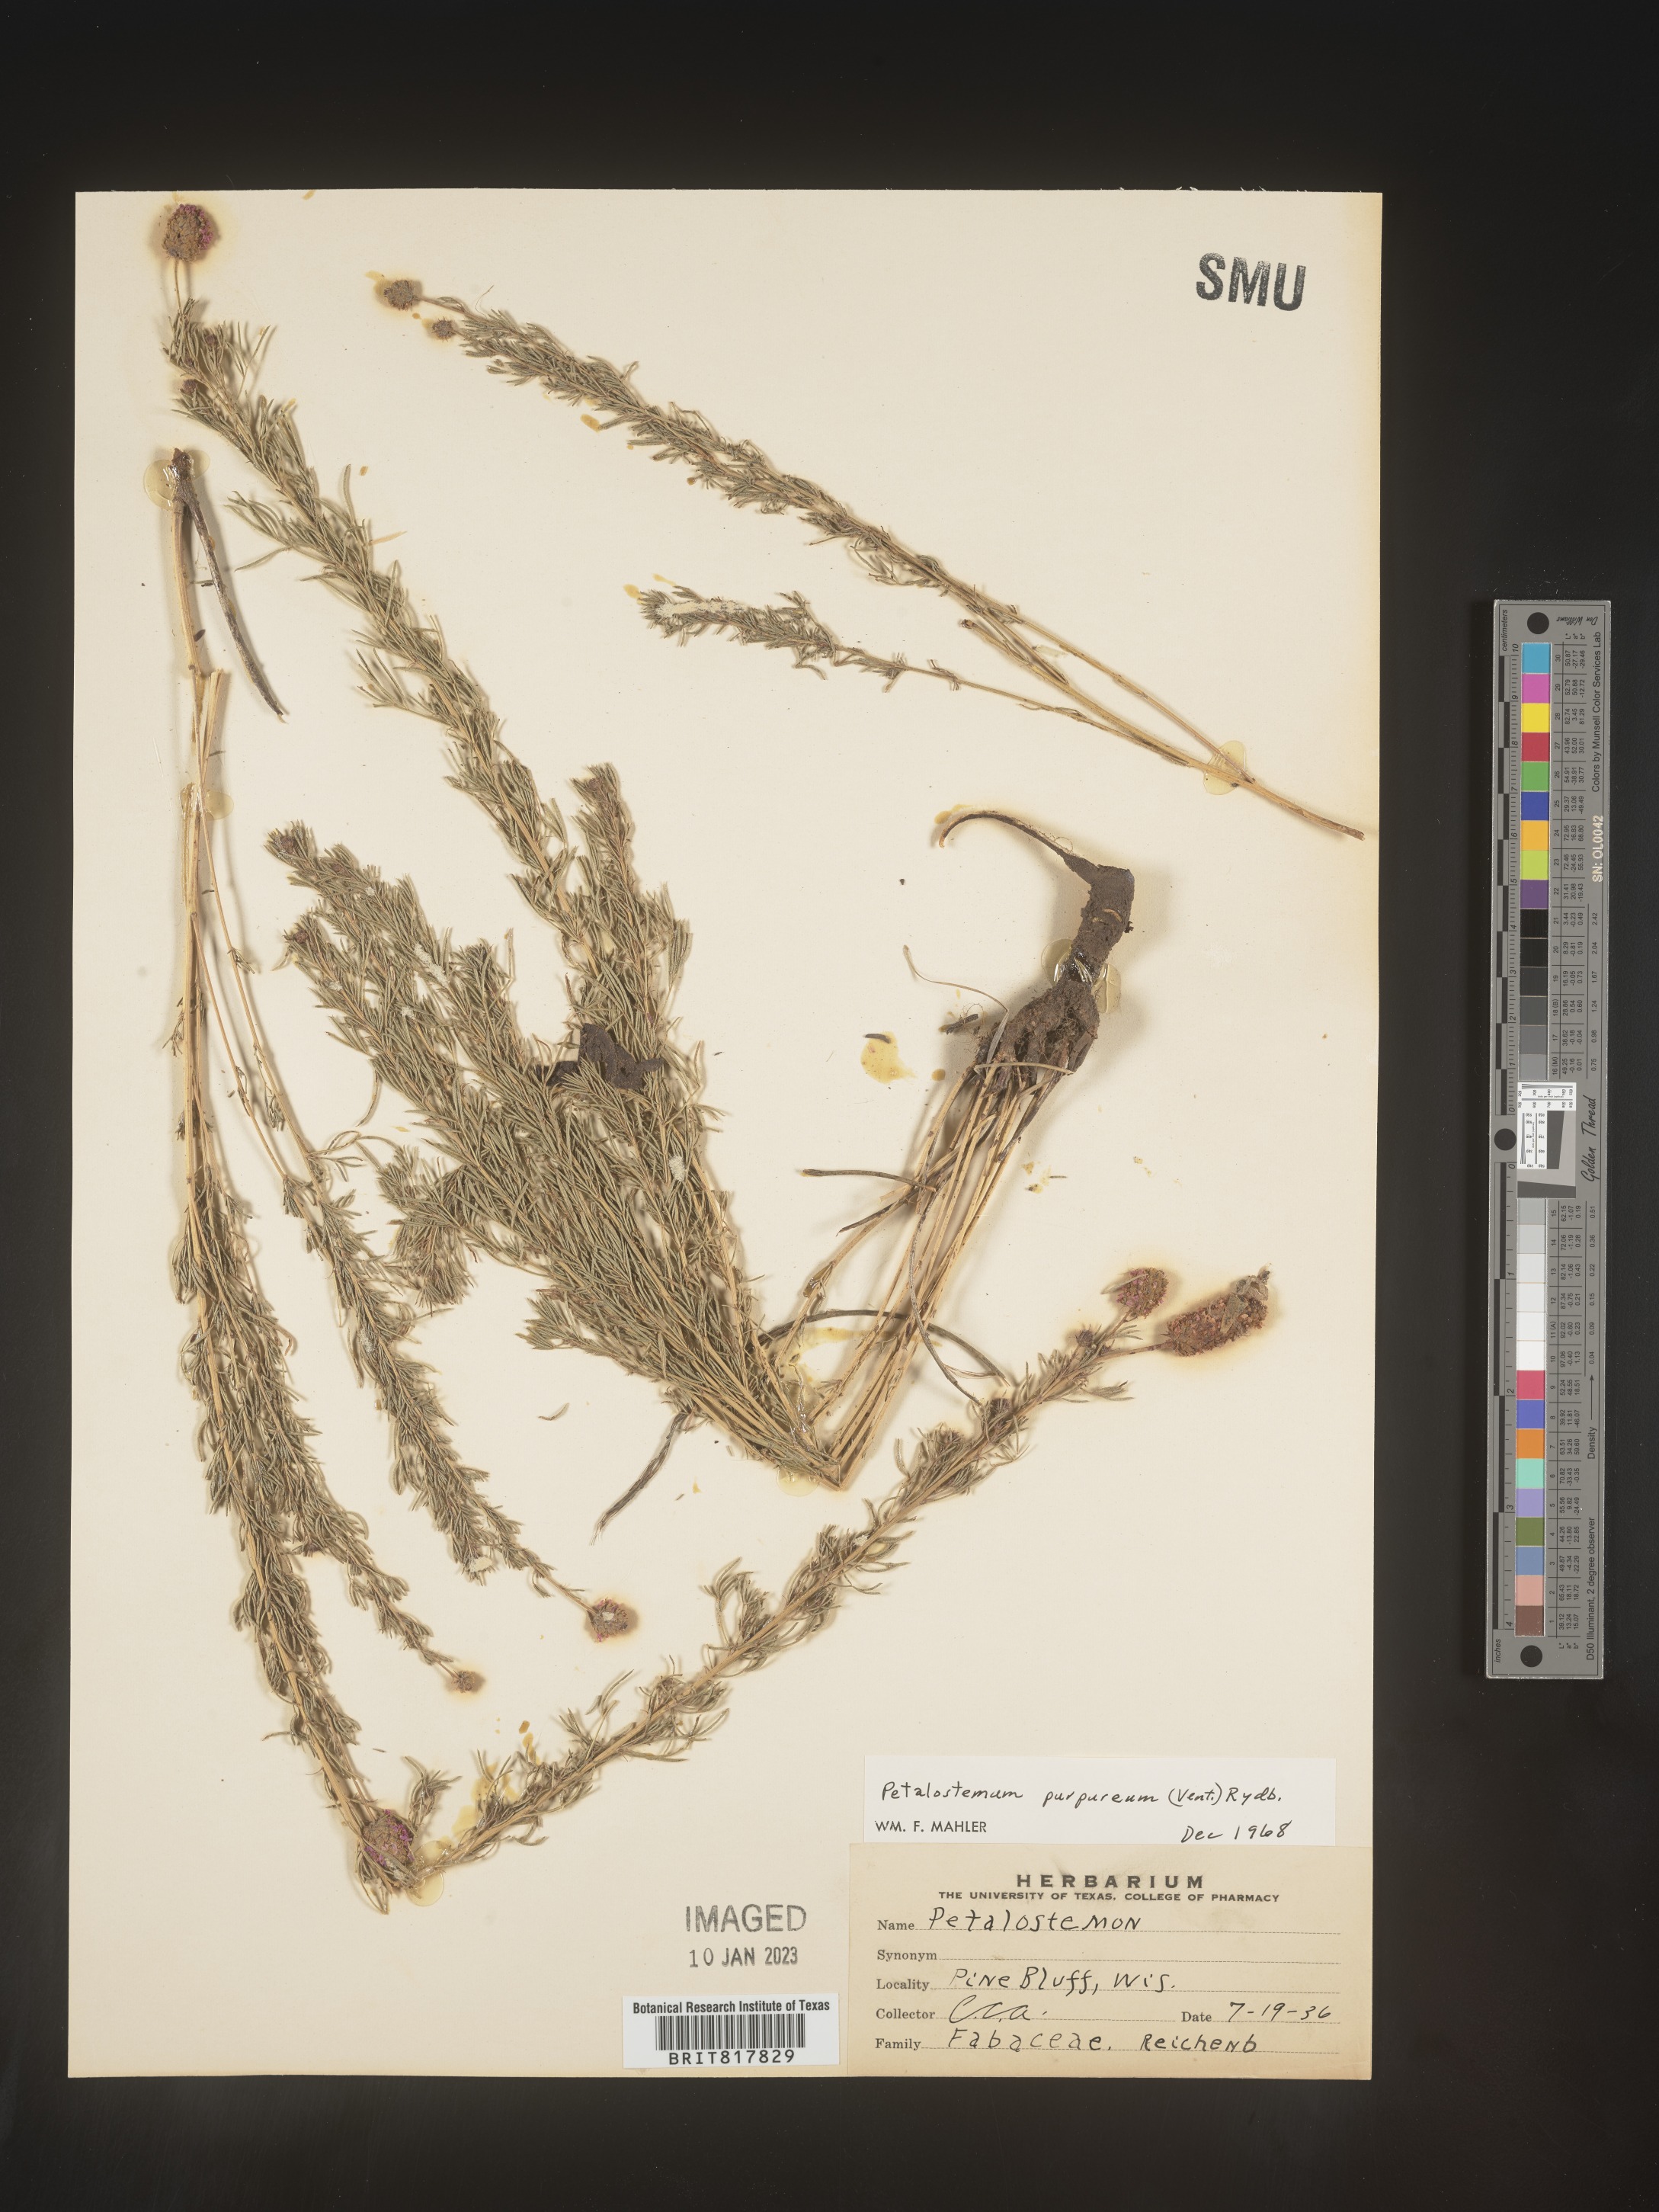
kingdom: Plantae
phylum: Tracheophyta
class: Magnoliopsida
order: Fabales
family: Fabaceae
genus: Dalea
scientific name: Dalea purpurea
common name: Purple prairie-clover
